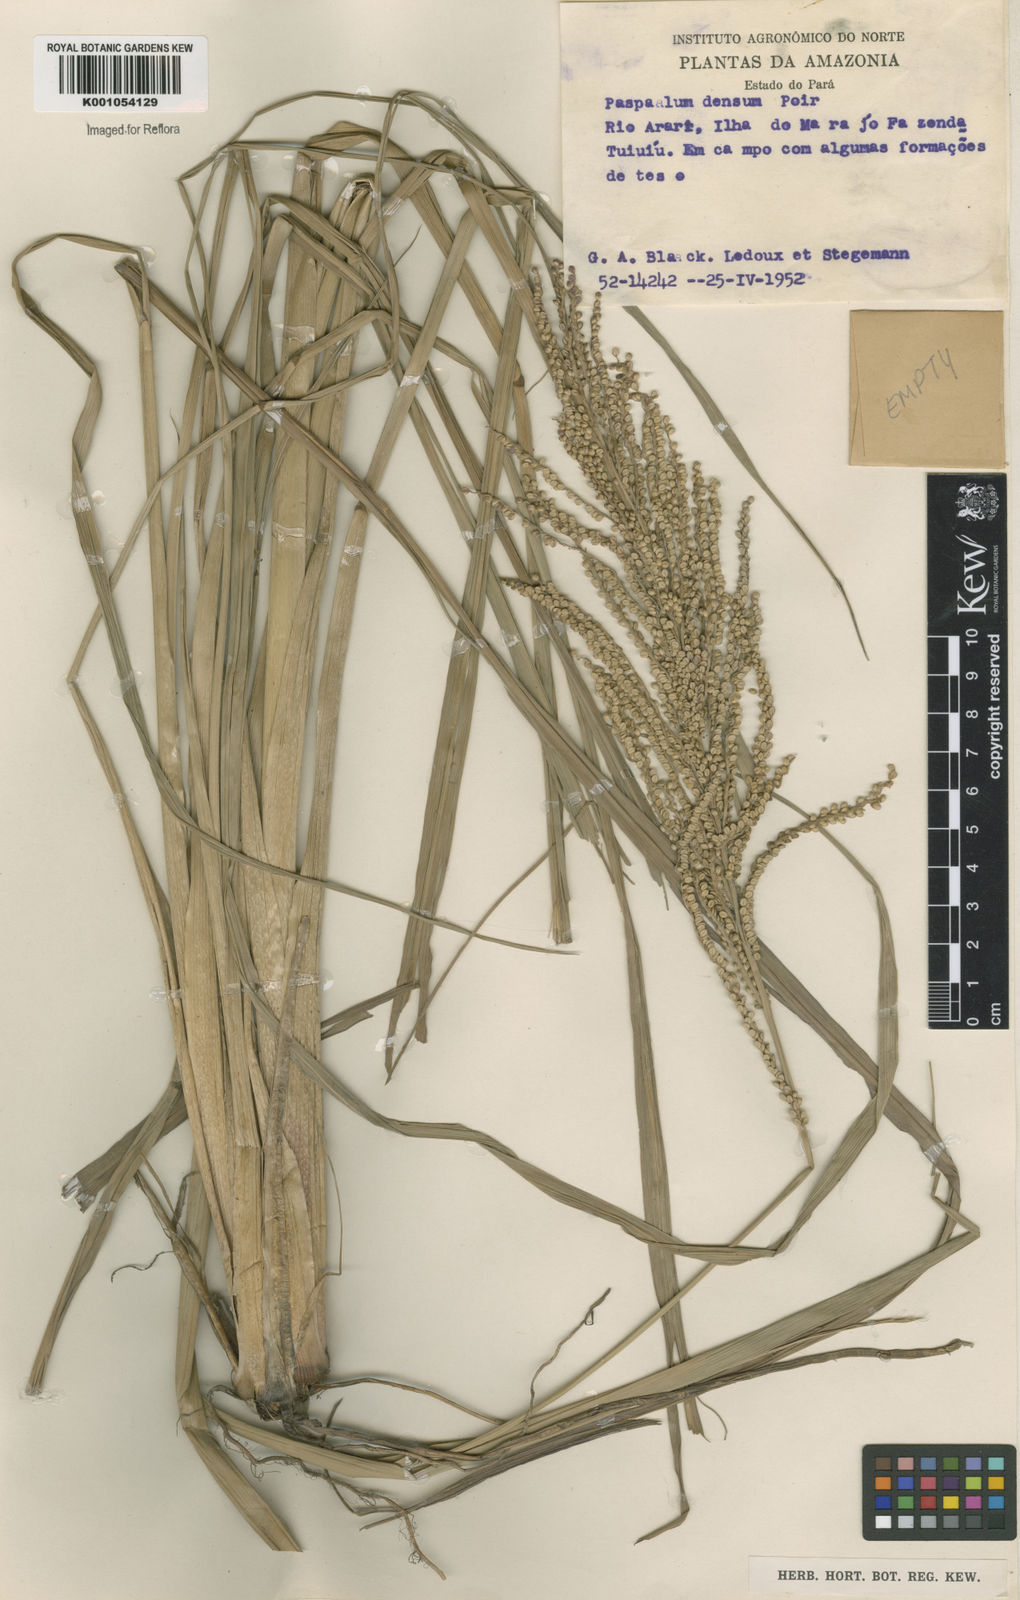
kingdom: Plantae
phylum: Tracheophyta
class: Liliopsida
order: Poales
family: Poaceae
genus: Paspalum
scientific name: Paspalum
